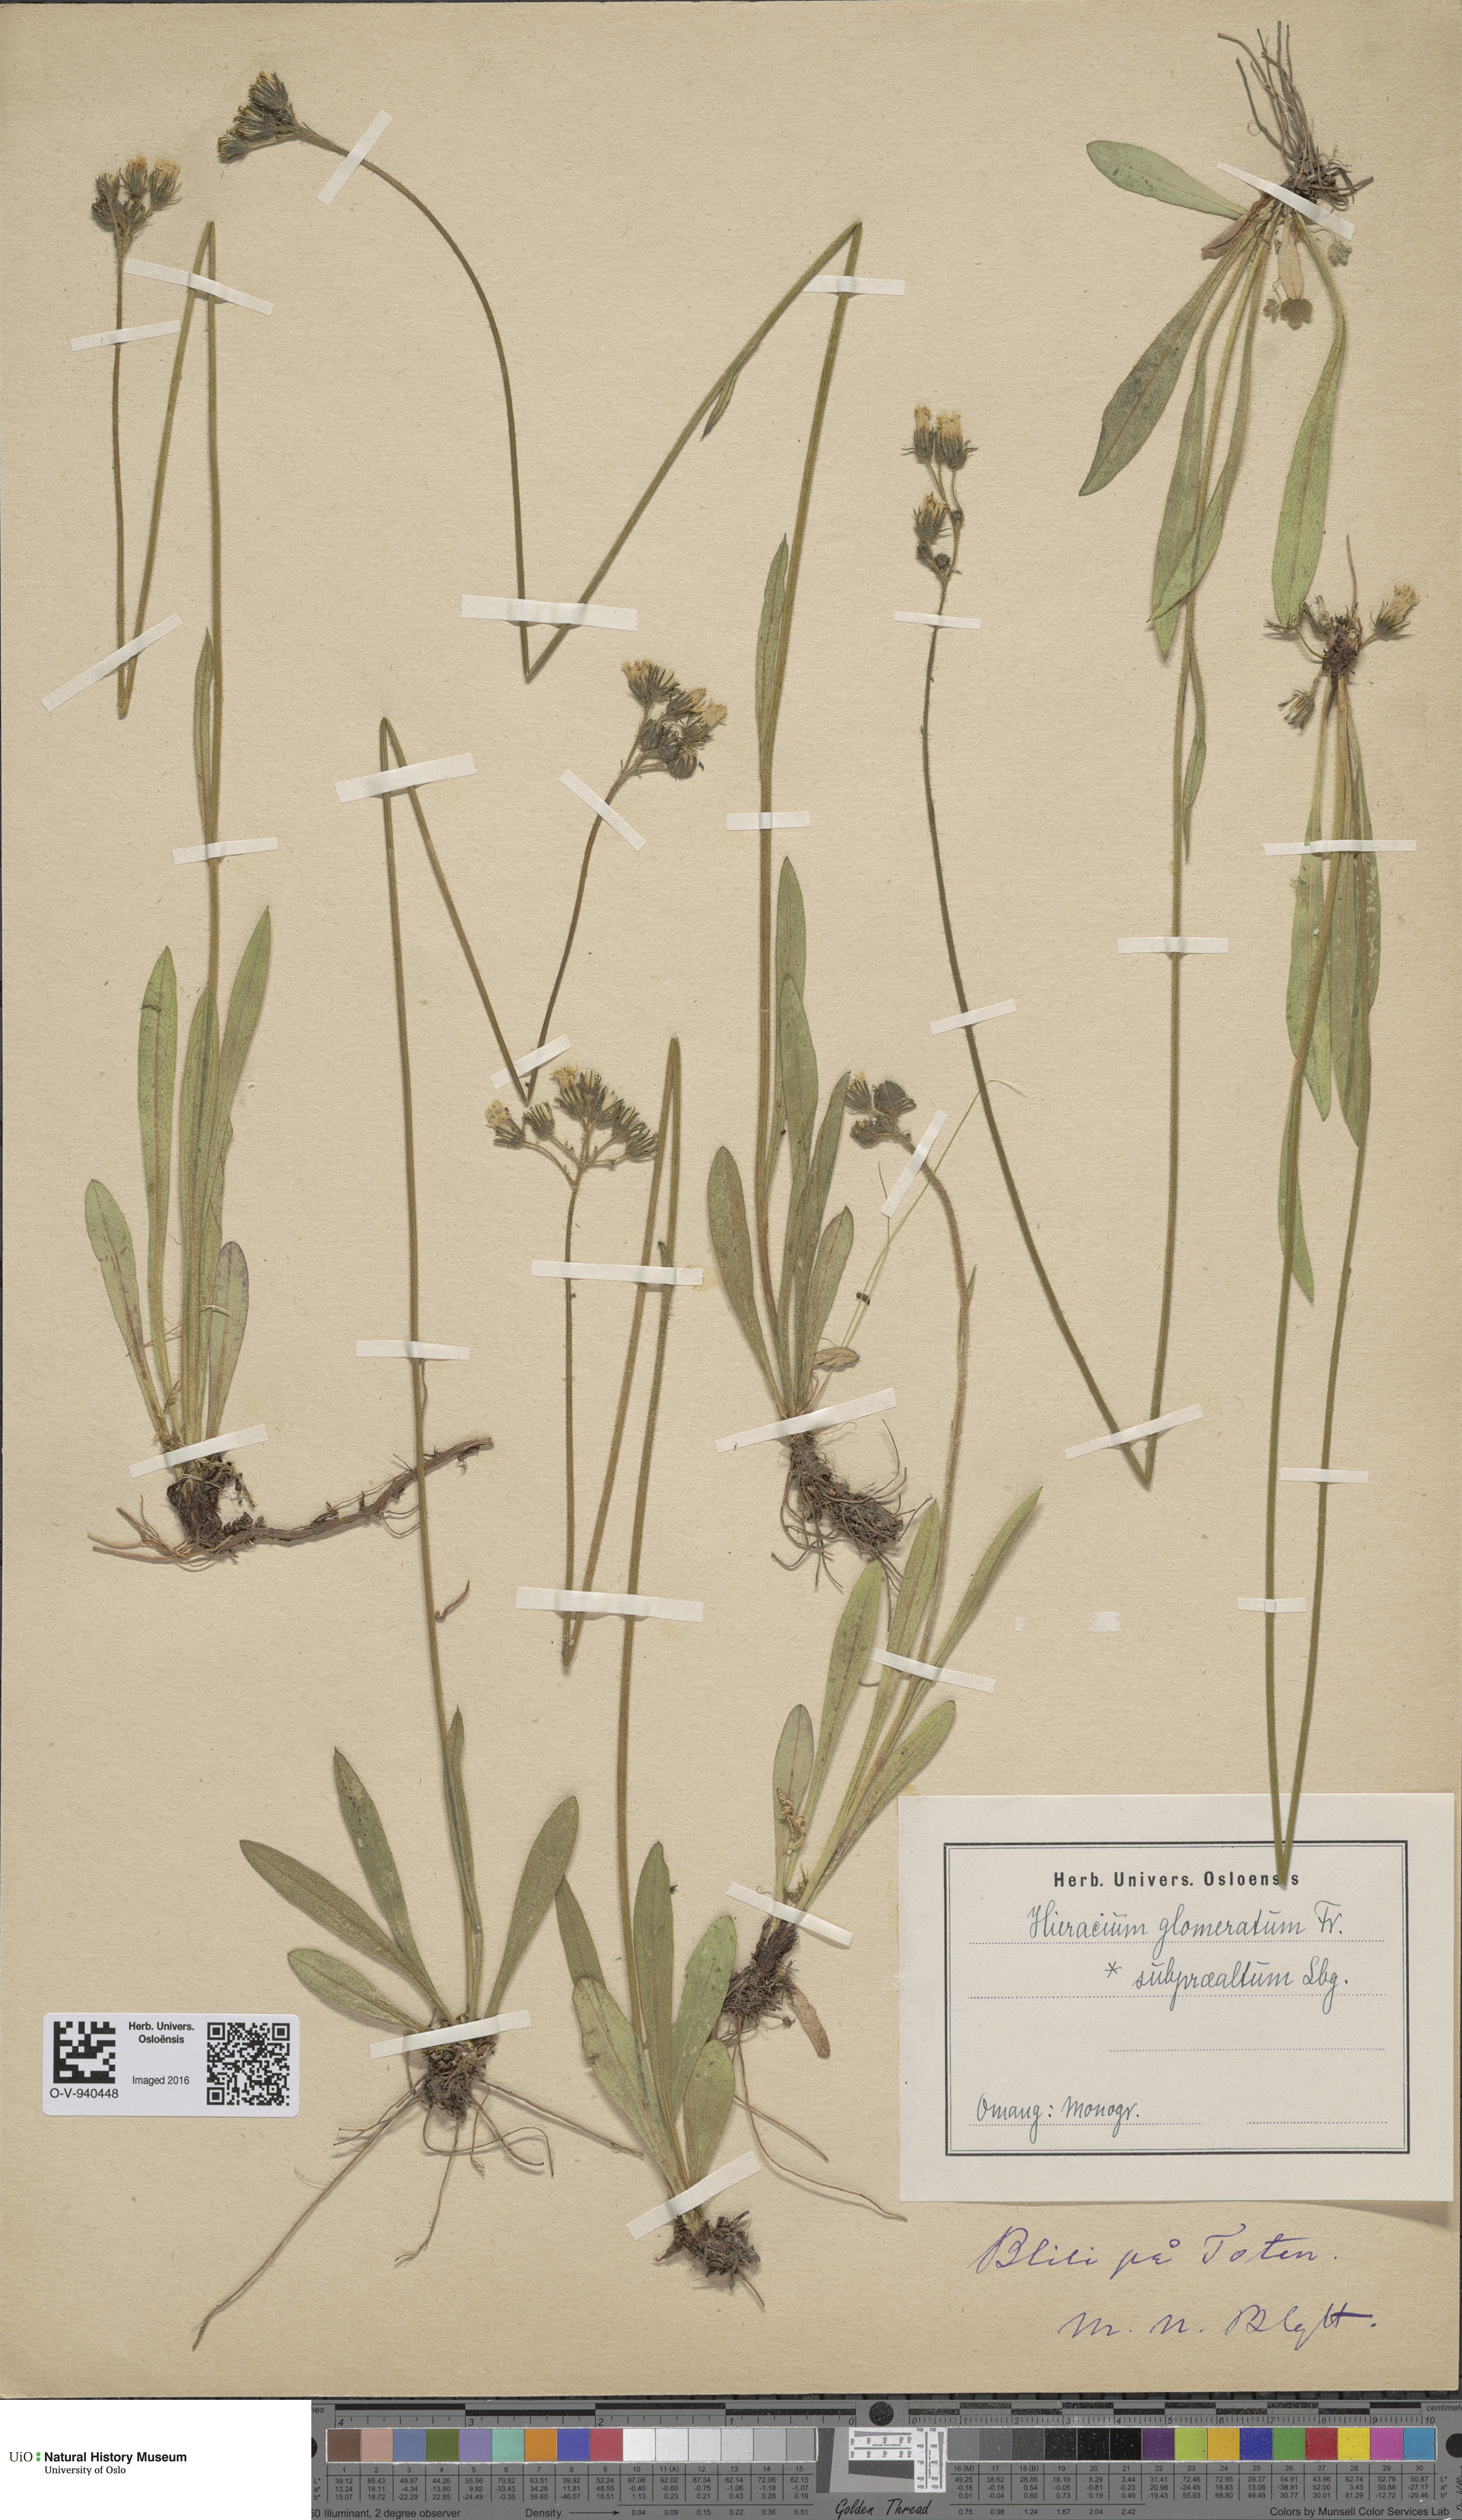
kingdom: Plantae
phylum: Tracheophyta
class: Magnoliopsida
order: Asterales
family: Asteraceae
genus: Pilosella
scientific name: Pilosella glomerata
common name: Queen devil hawkweed
